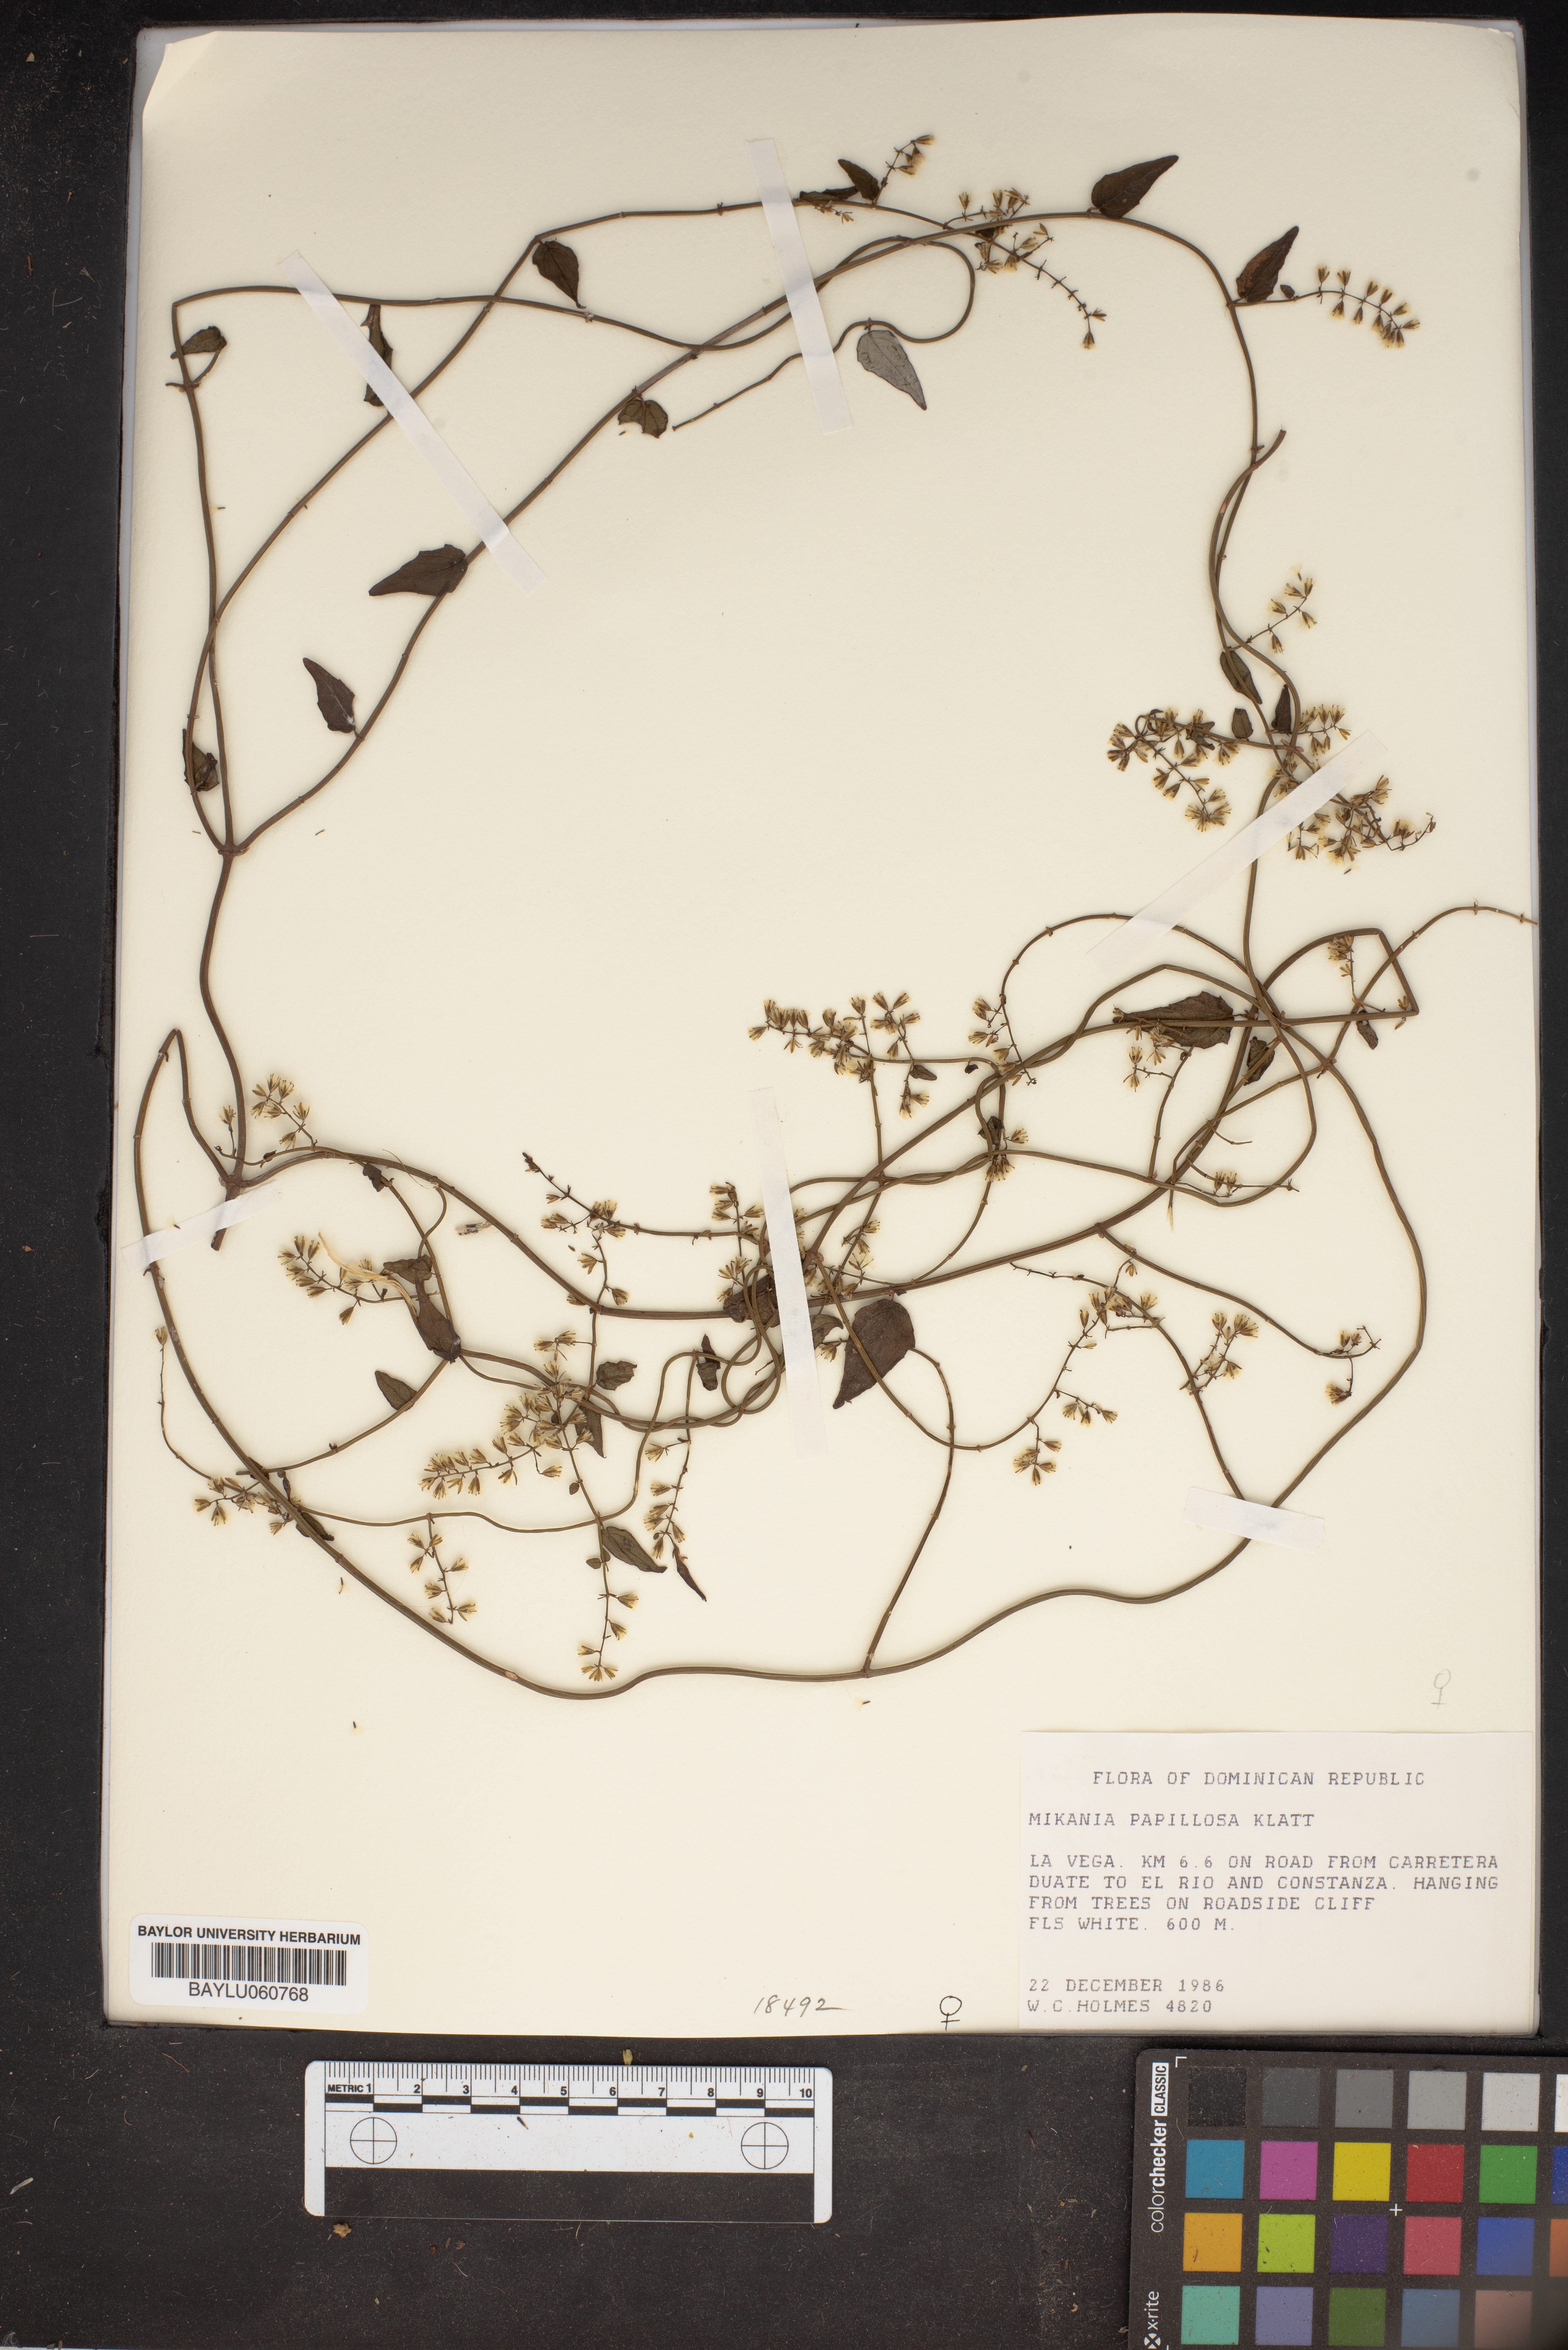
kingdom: Plantae
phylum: Tracheophyta
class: Magnoliopsida
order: Asterales
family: Asteraceae
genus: Mikania
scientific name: Mikania papillosa
